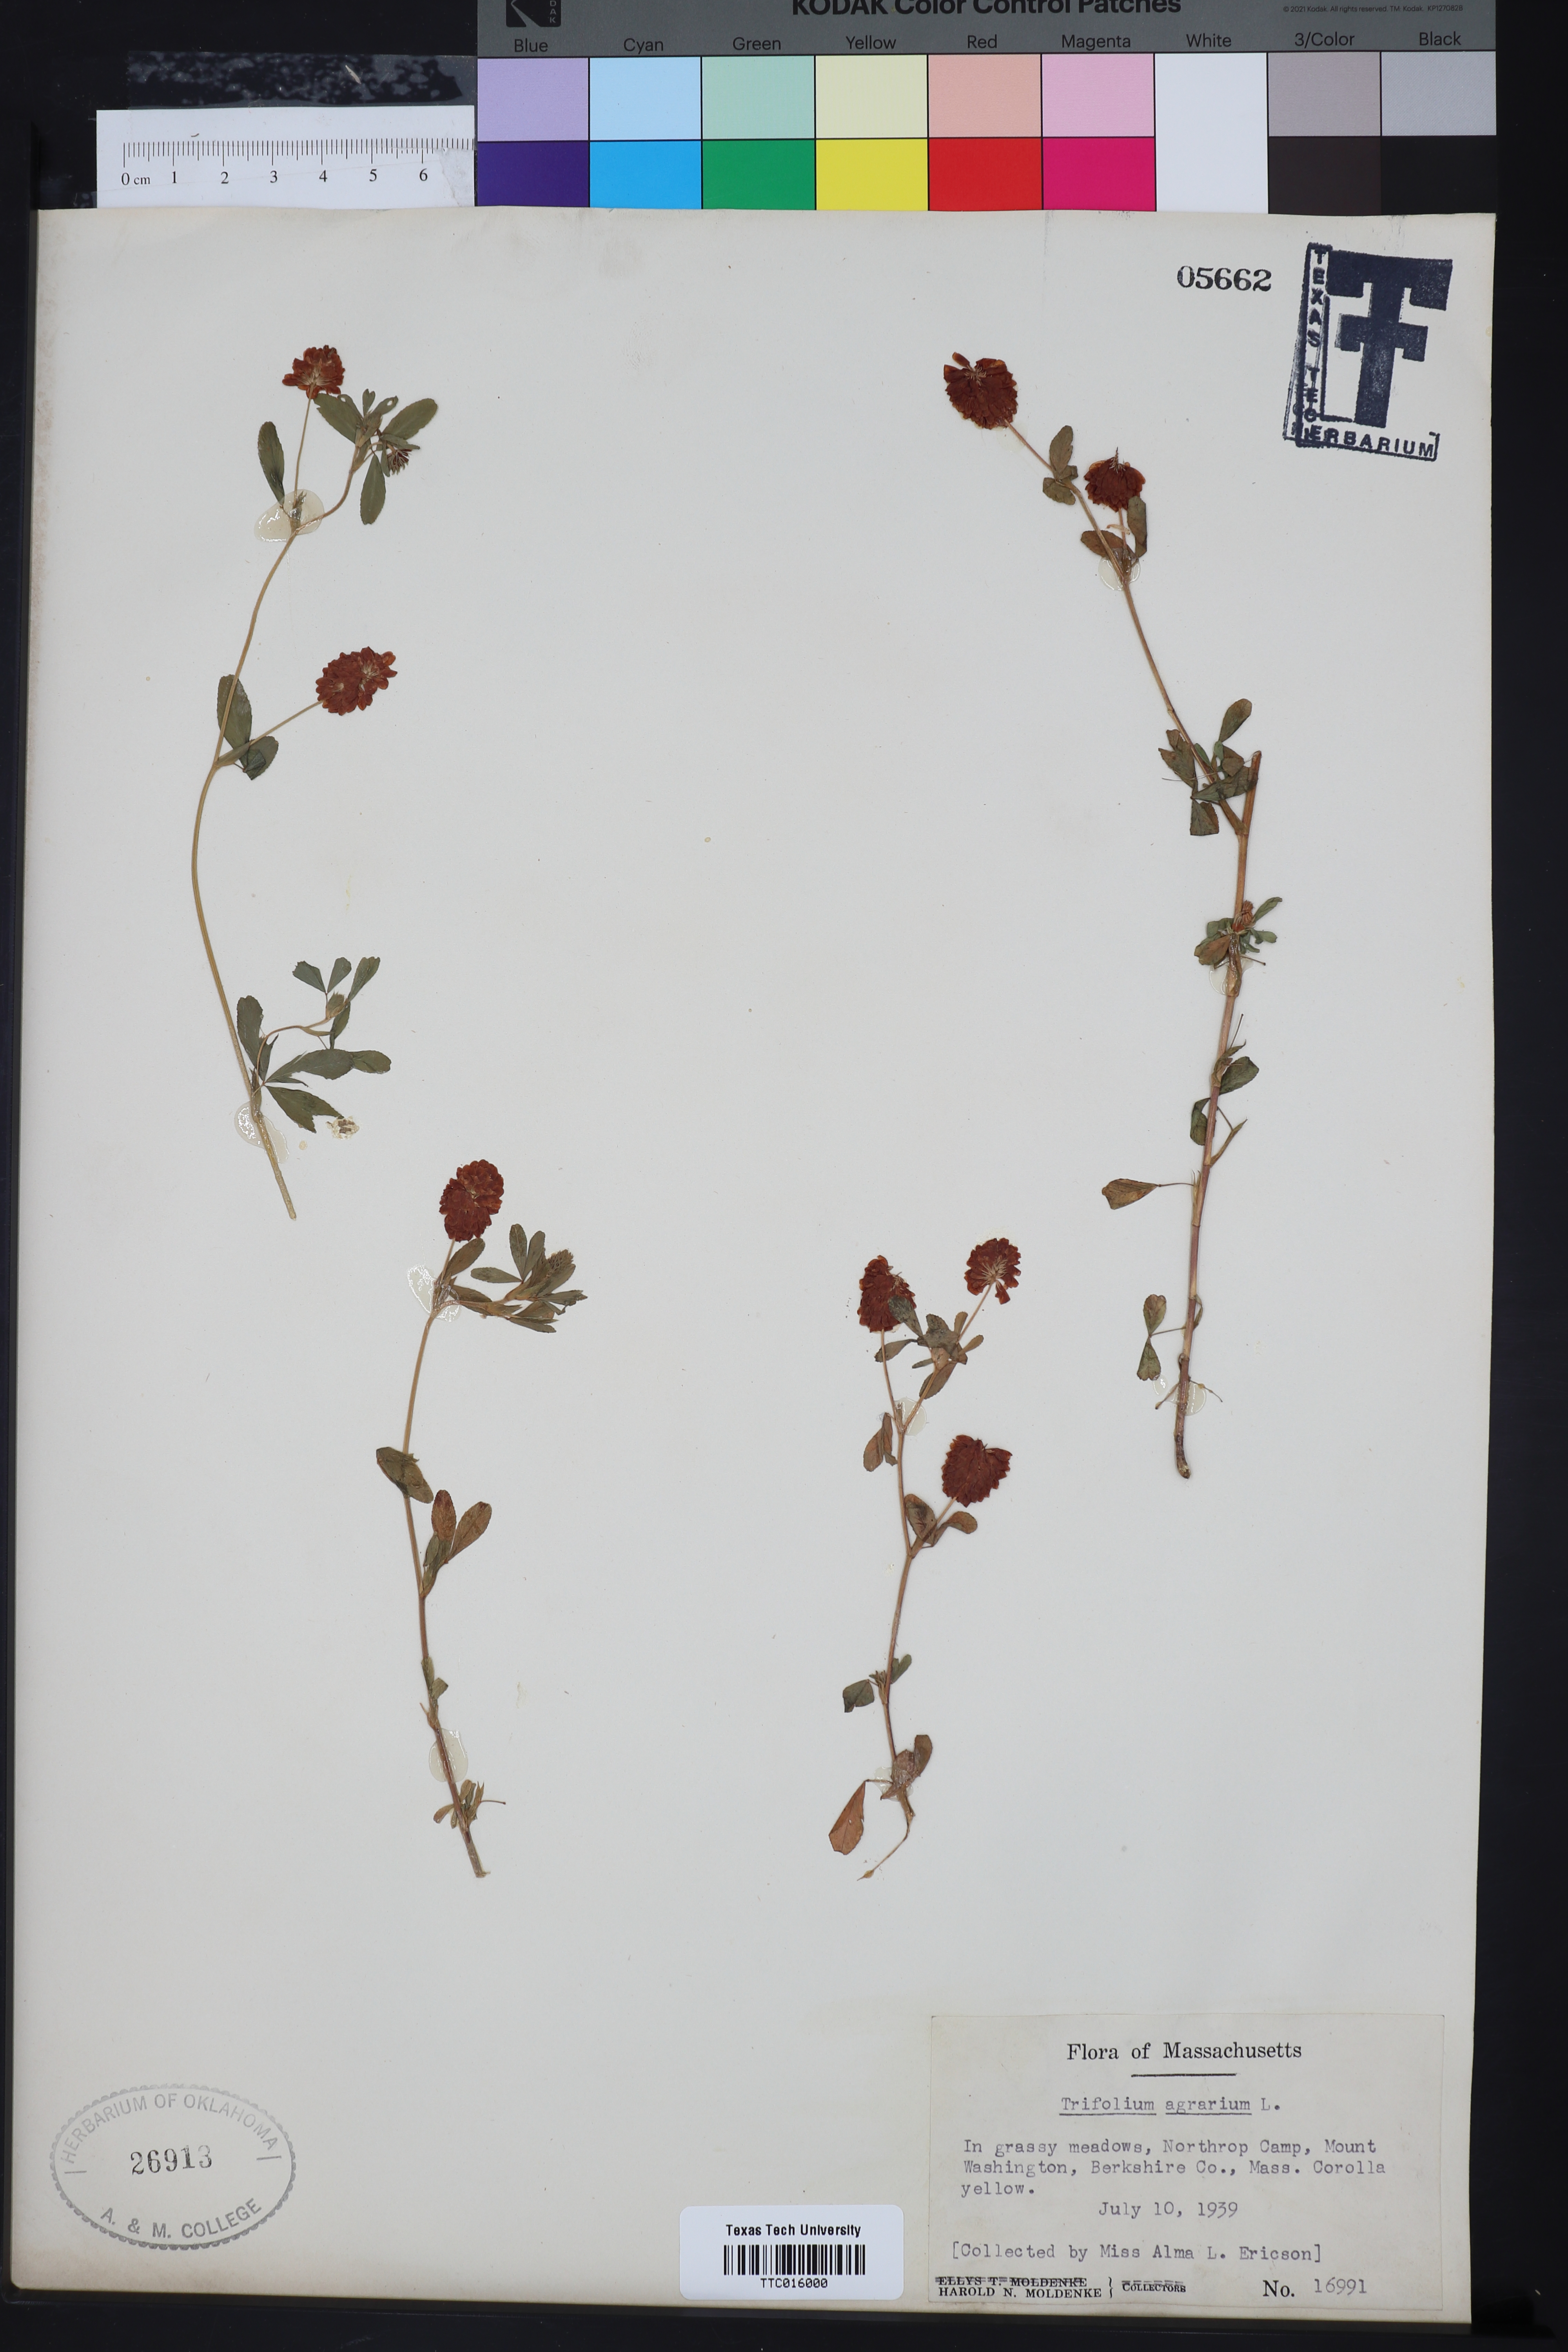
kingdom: Plantae
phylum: Tracheophyta
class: Magnoliopsida
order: Fabales
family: Fabaceae
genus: Trifolium
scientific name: Trifolium agrarium
